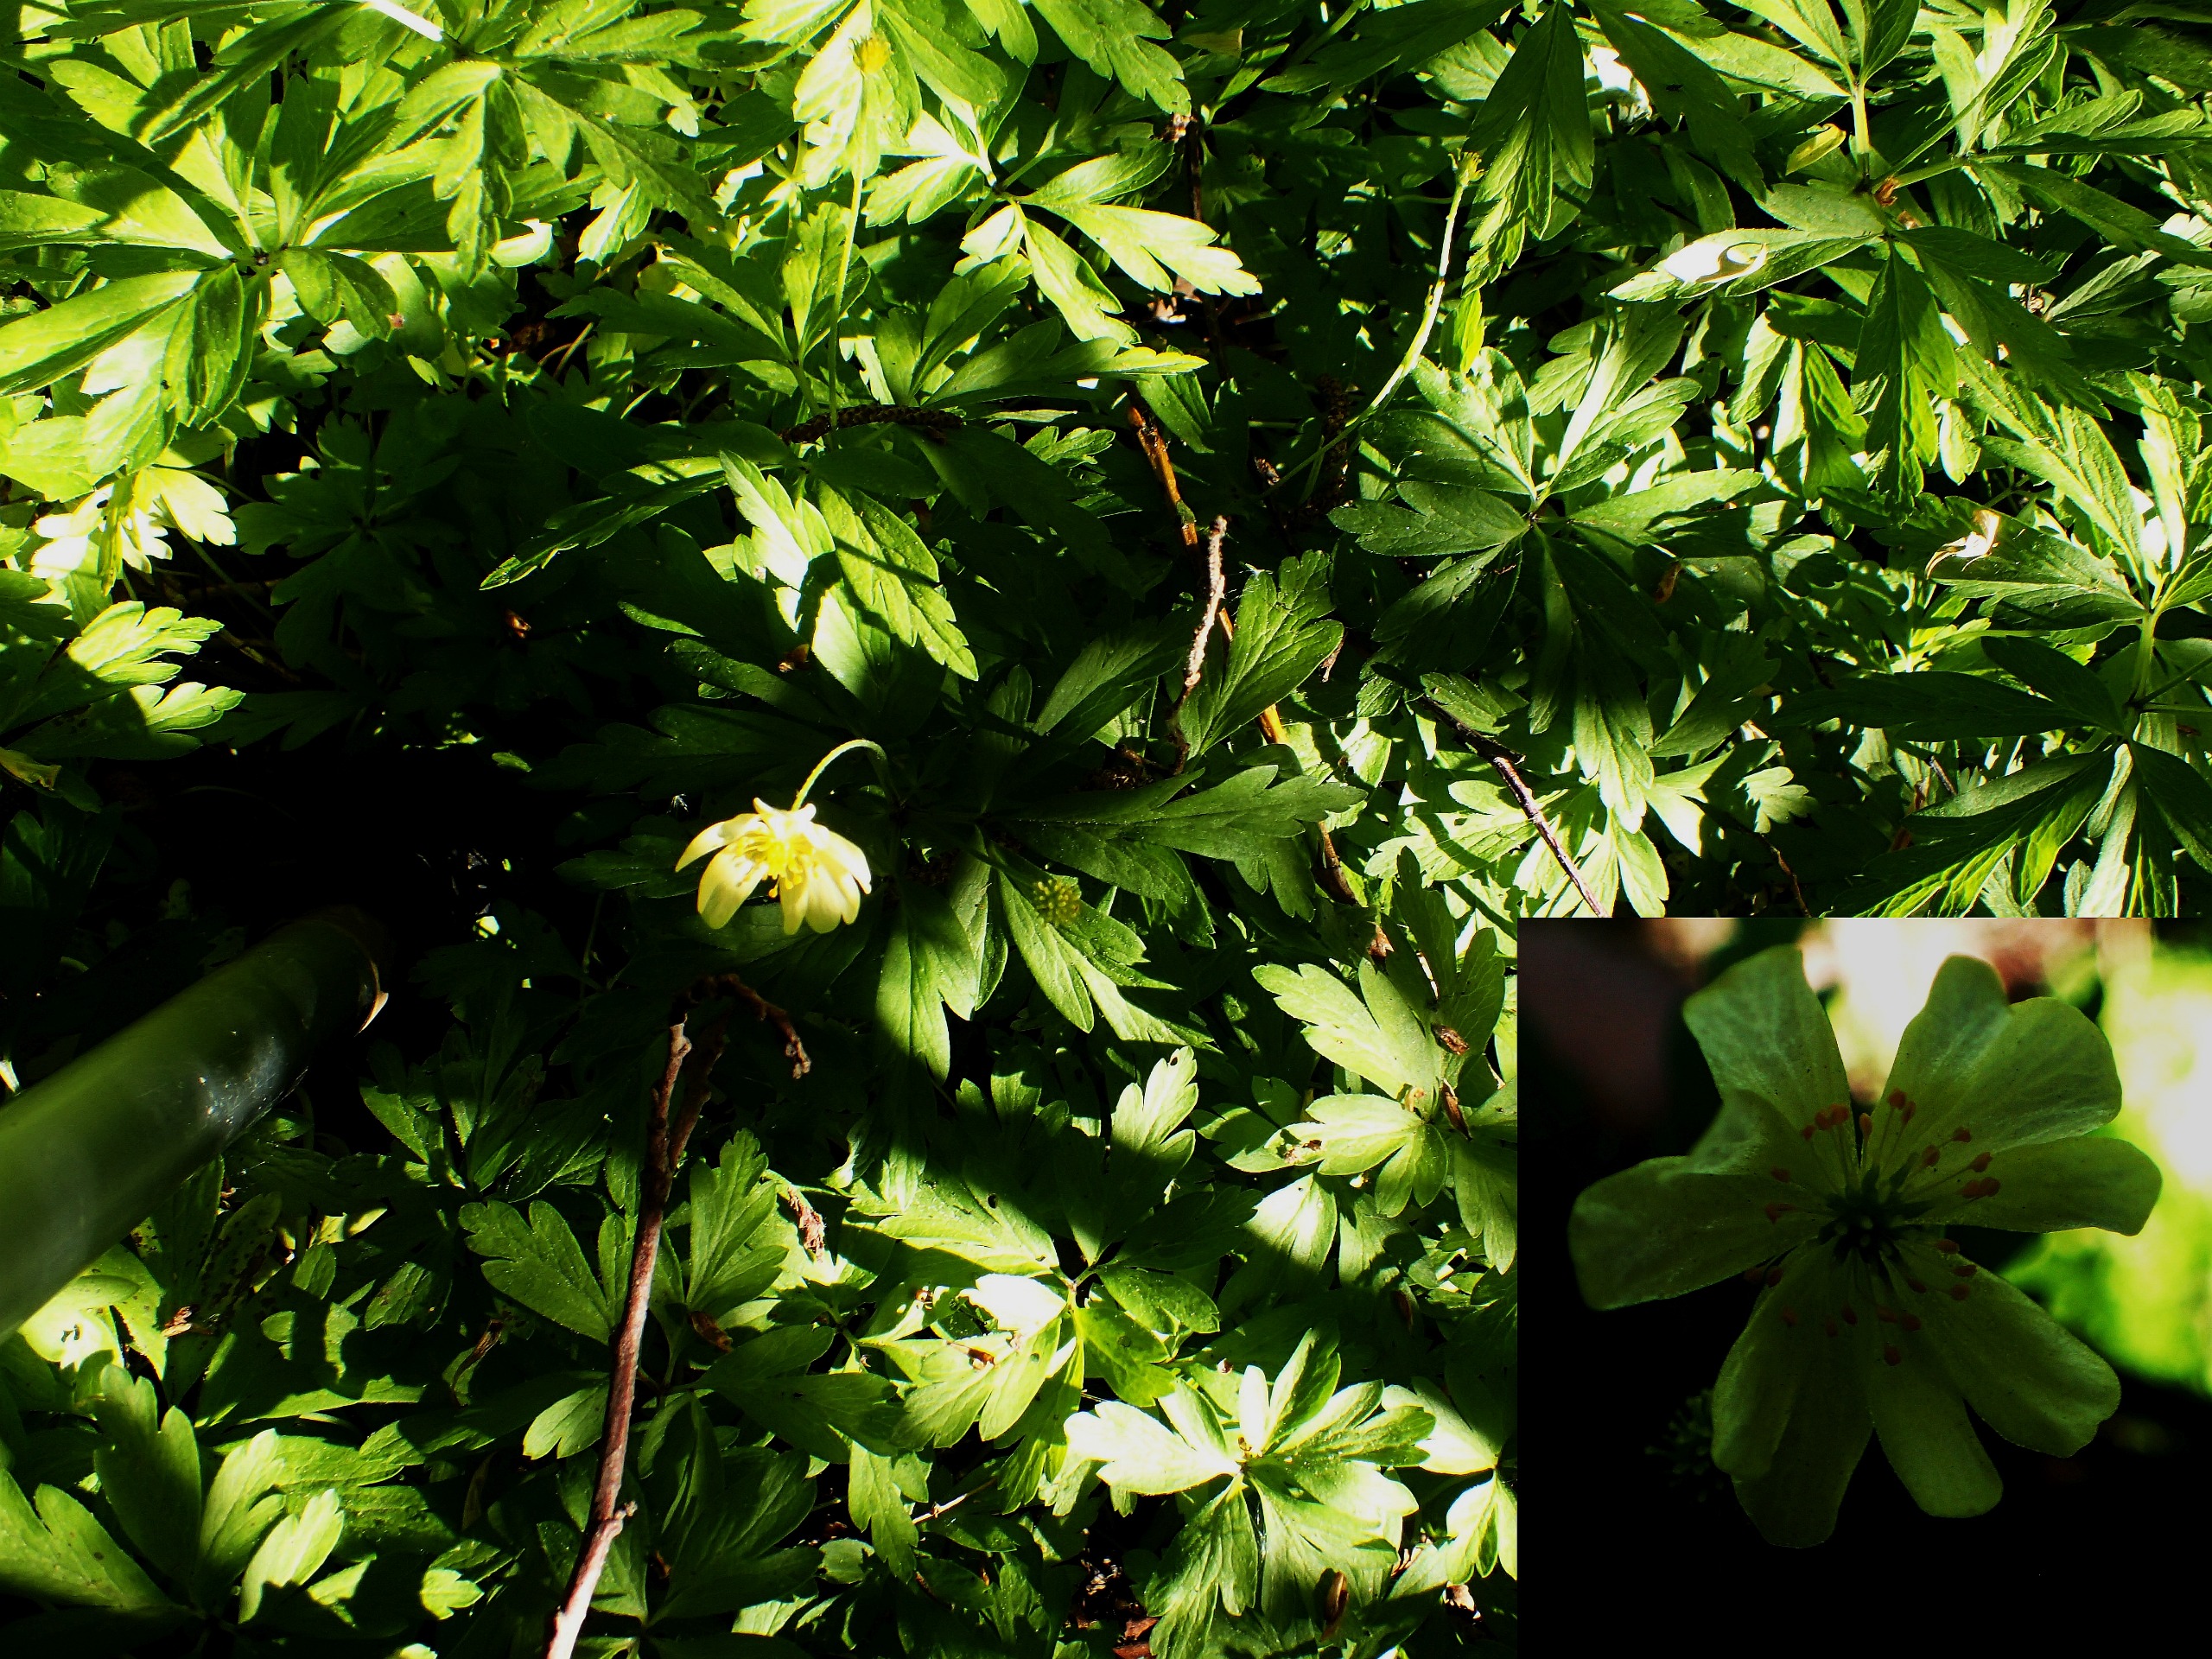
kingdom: Plantae
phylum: Tracheophyta
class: Magnoliopsida
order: Ranunculales
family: Ranunculaceae
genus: Anemone
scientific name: Anemone
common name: Svovlgul anemone
